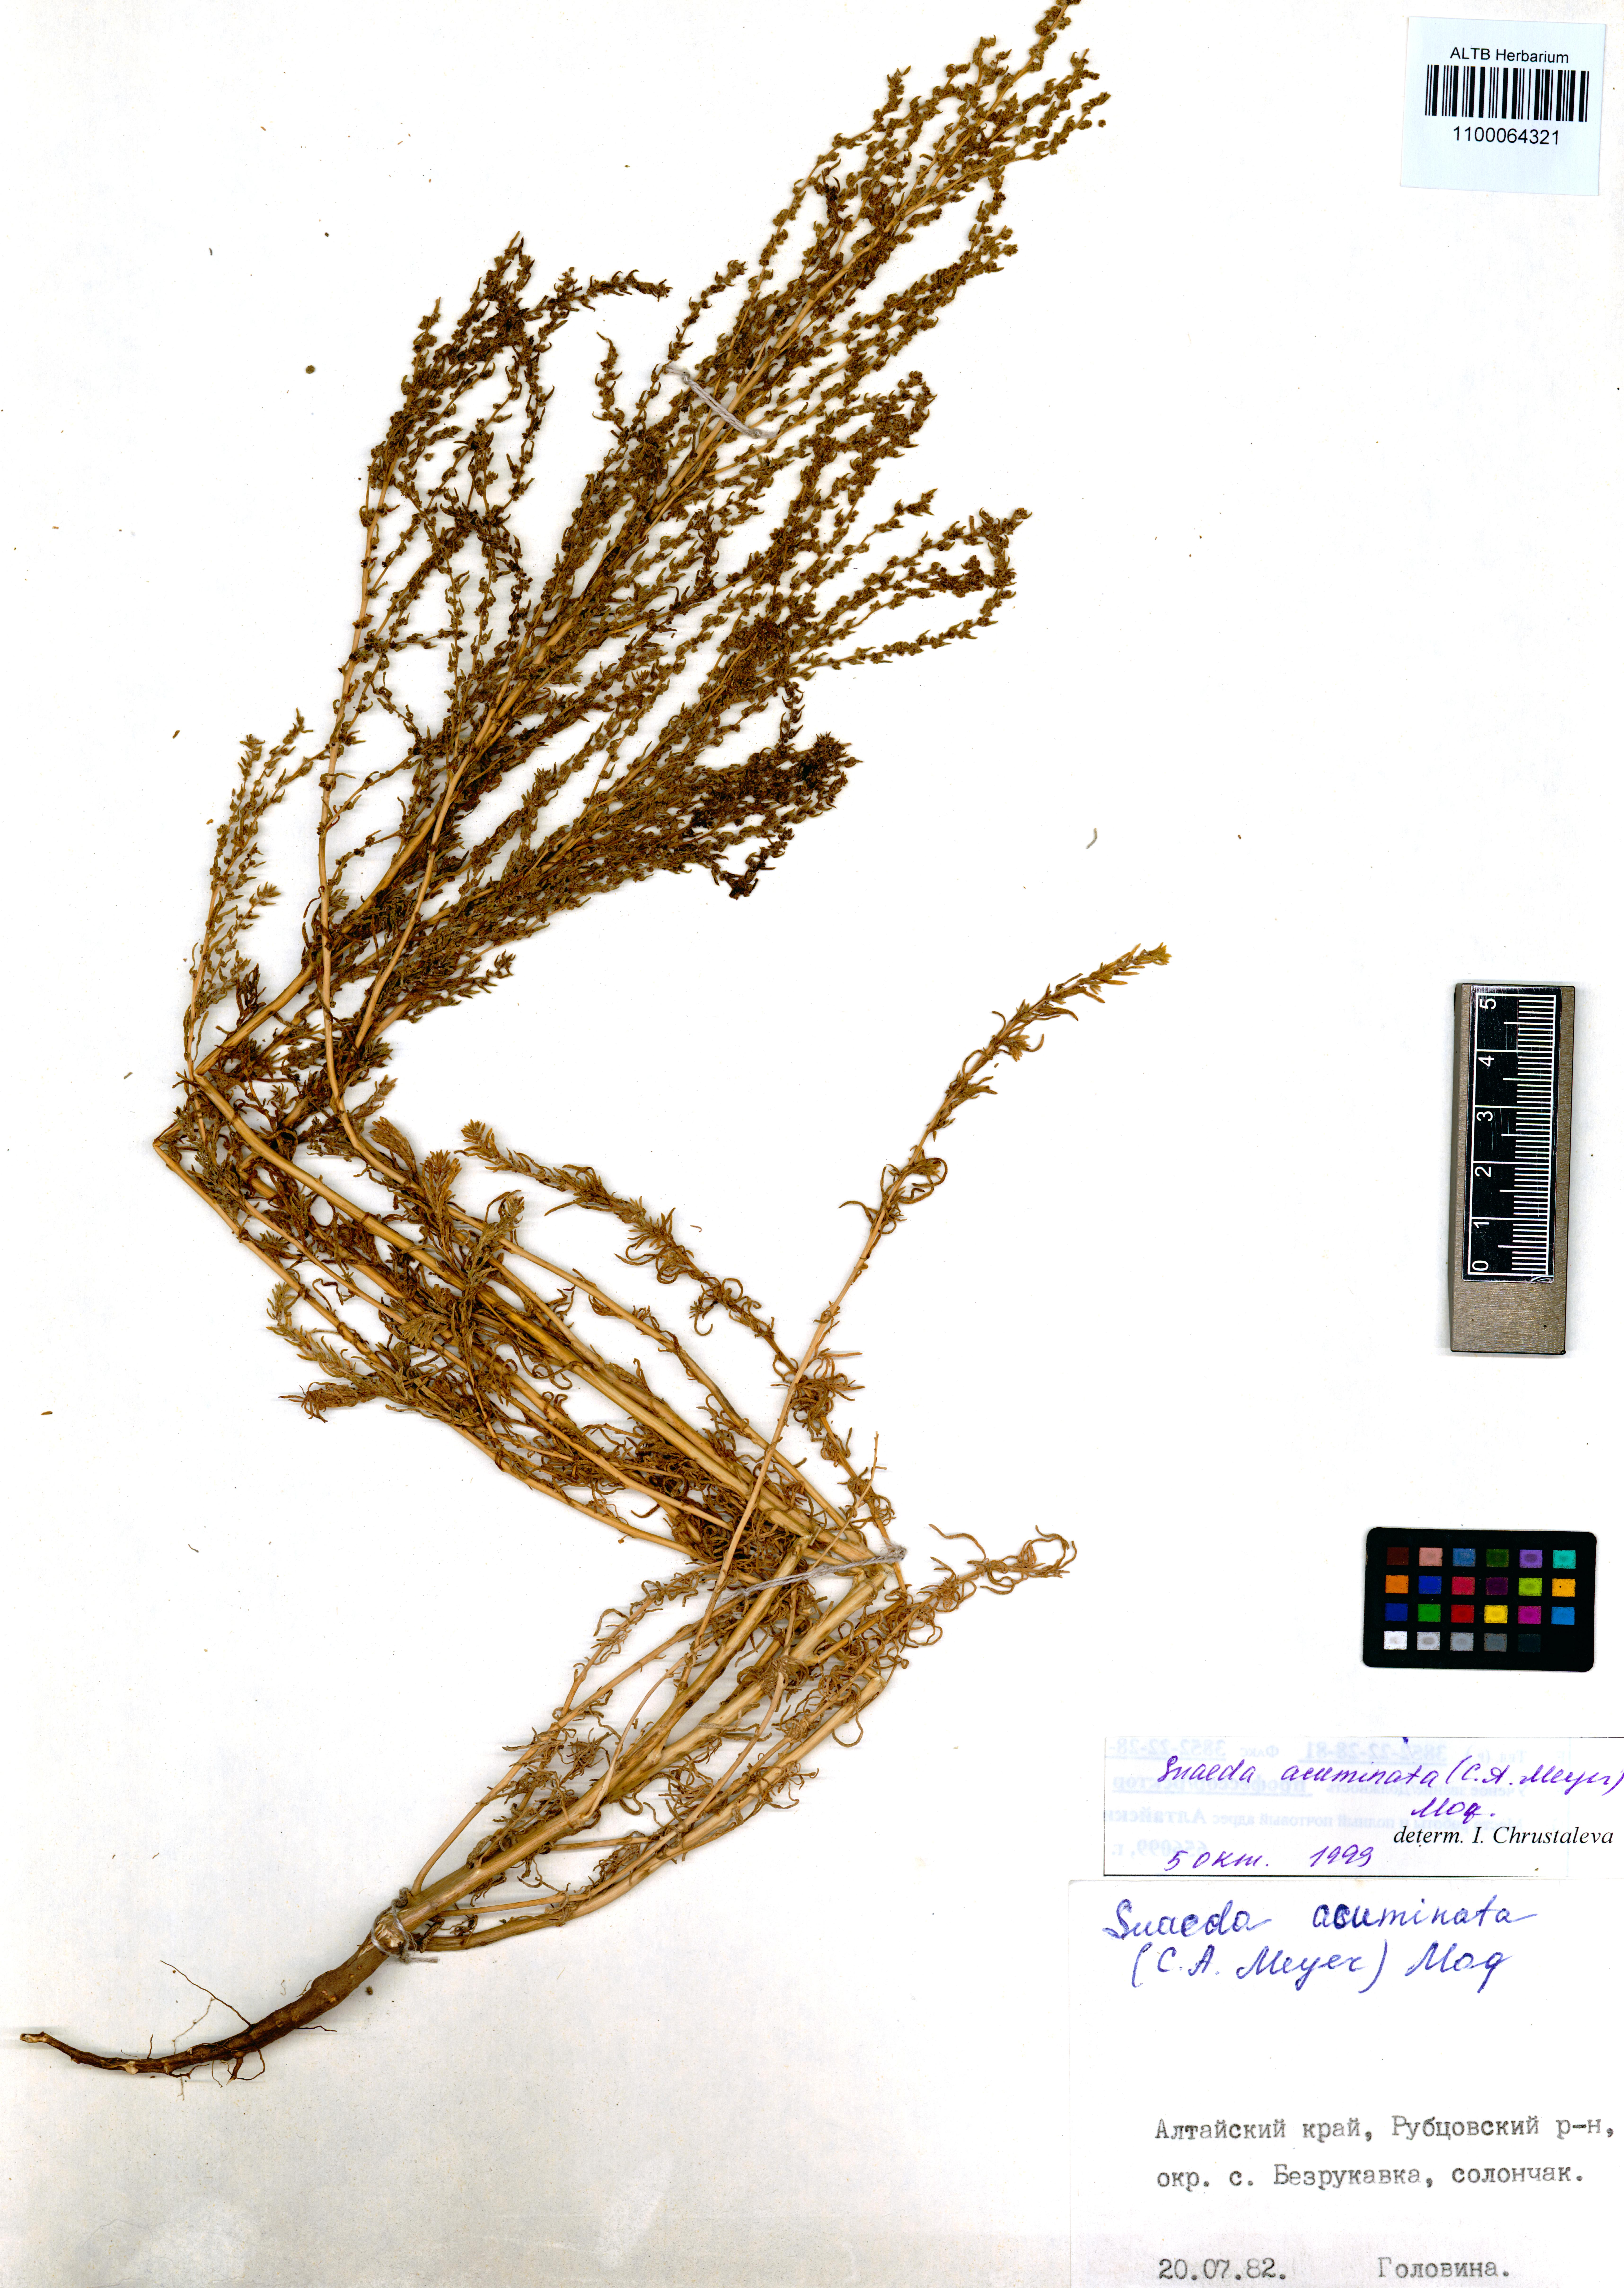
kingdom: Plantae
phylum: Tracheophyta
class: Magnoliopsida
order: Caryophyllales
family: Amaranthaceae
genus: Suaeda
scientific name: Suaeda acuminata
